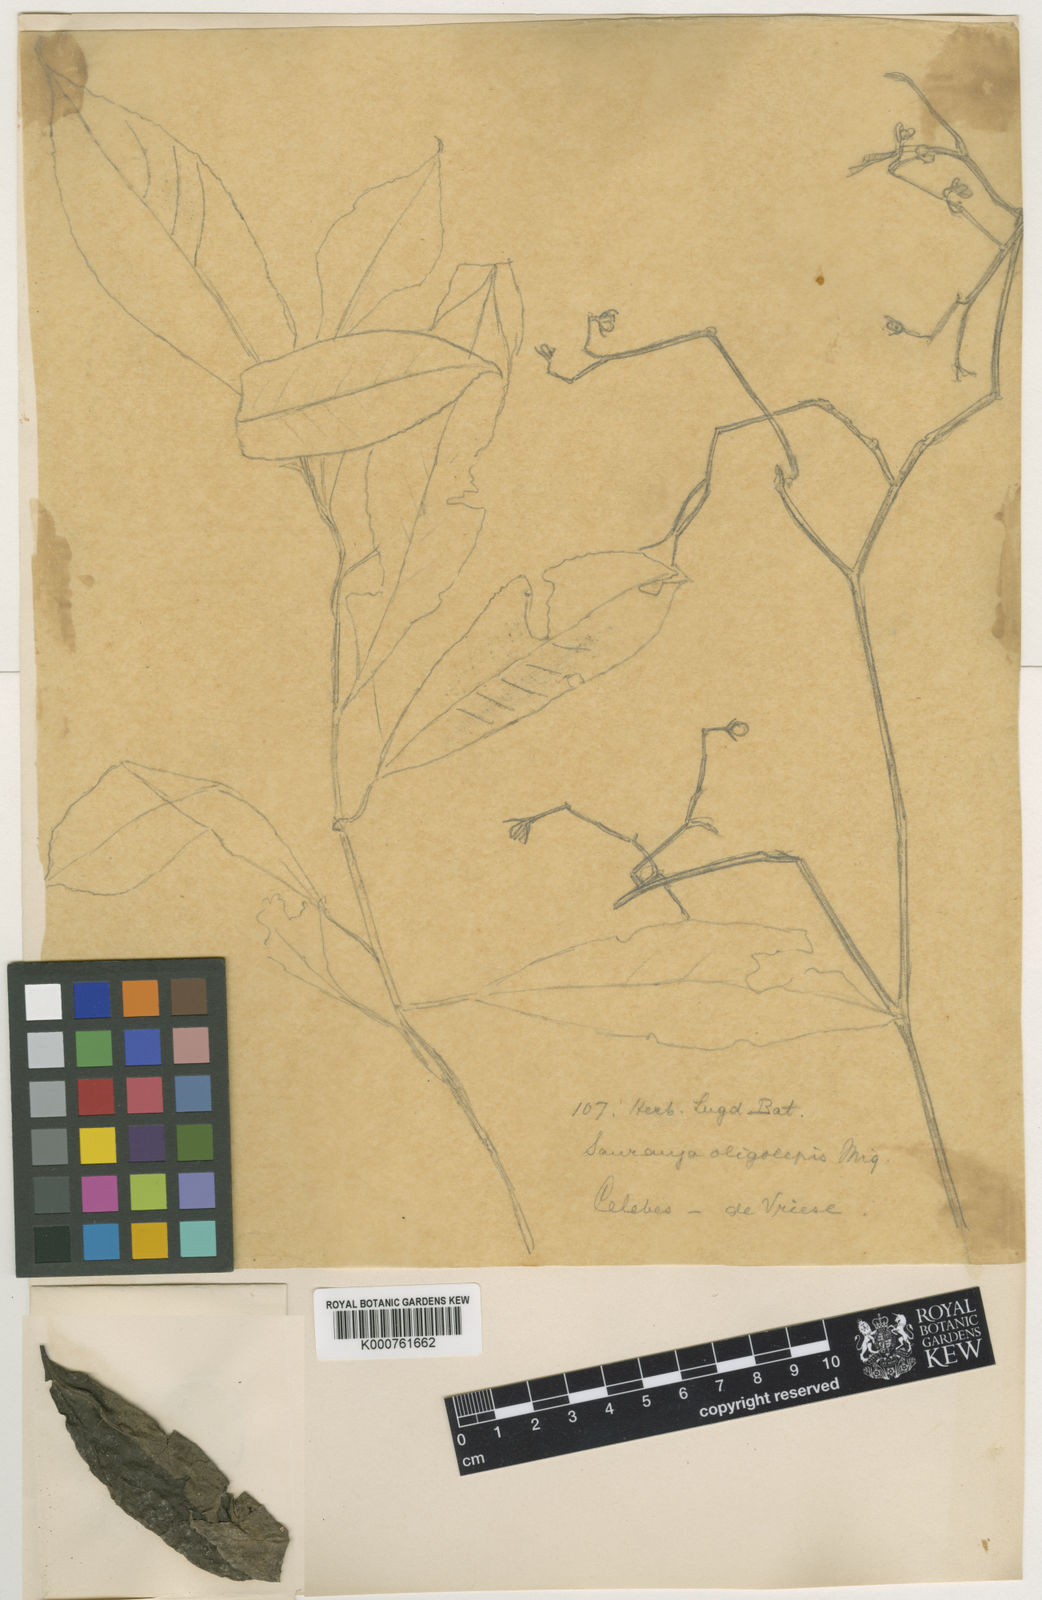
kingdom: Plantae
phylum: Tracheophyta
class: Magnoliopsida
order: Ericales
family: Actinidiaceae
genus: Saurauia
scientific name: Saurauia oligolepis
